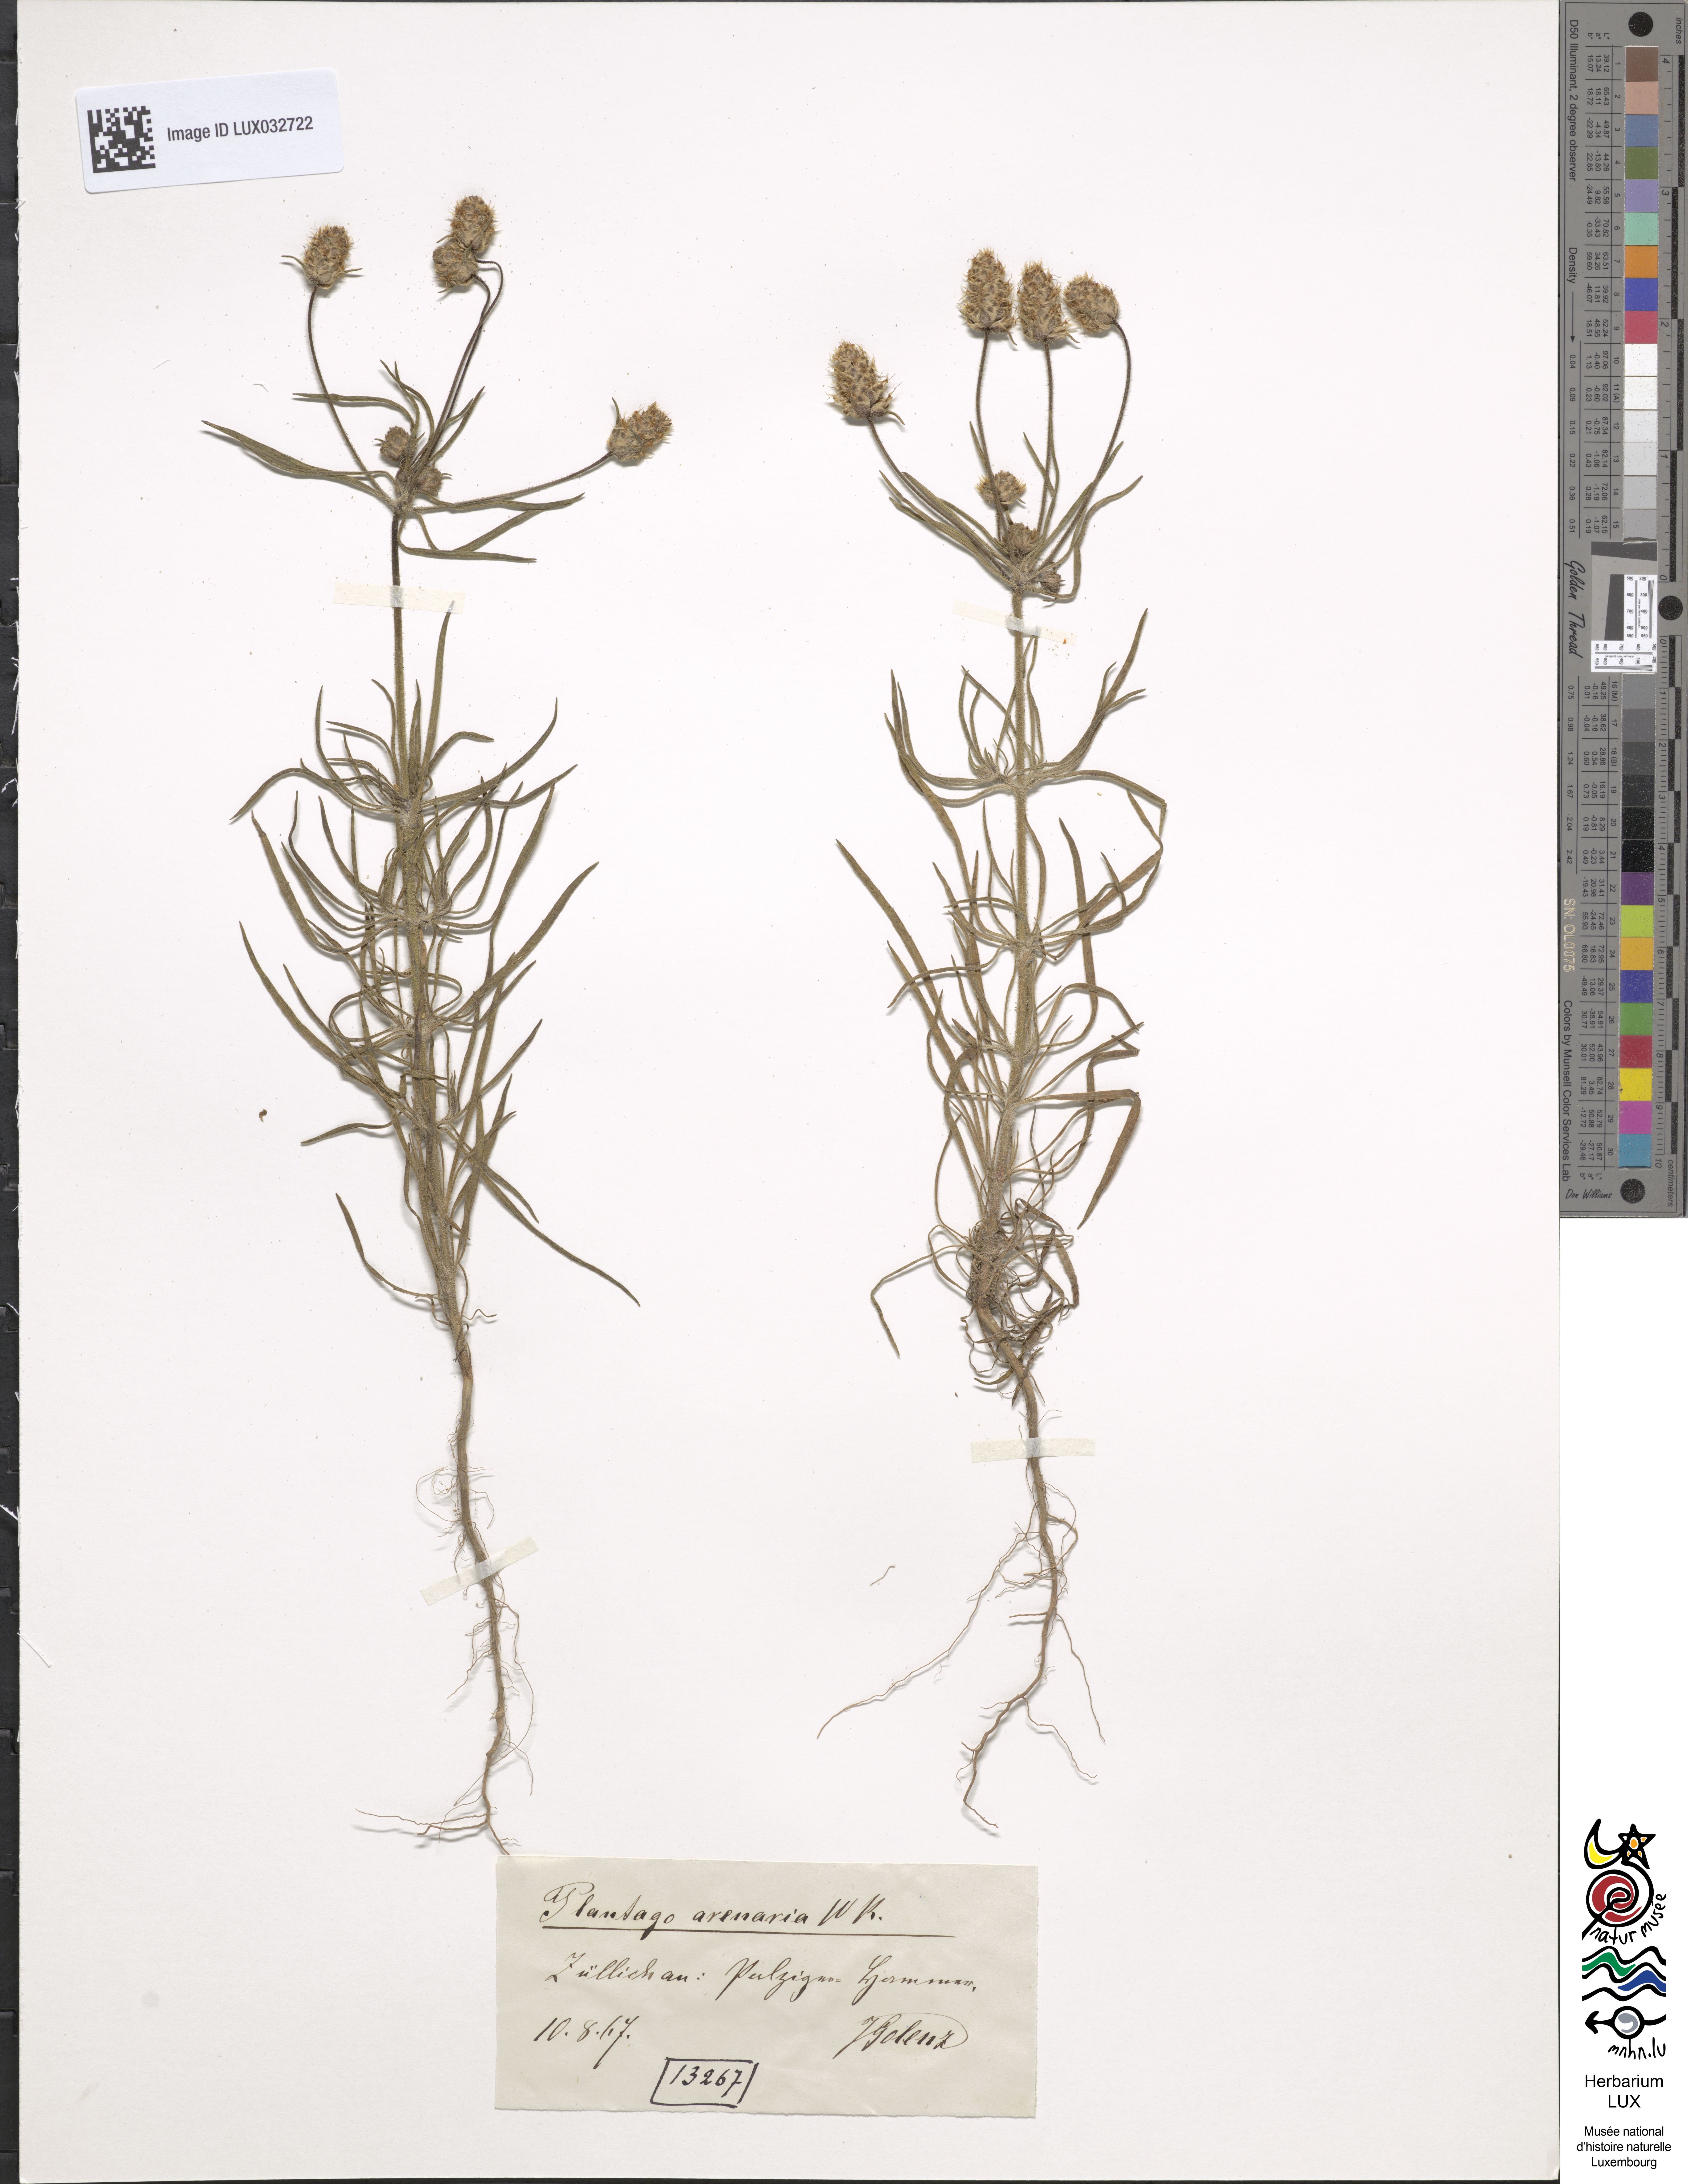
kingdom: Plantae
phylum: Tracheophyta
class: Magnoliopsida
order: Lamiales
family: Plantaginaceae
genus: Plantago
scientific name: Plantago arenaria
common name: Branched plantain
